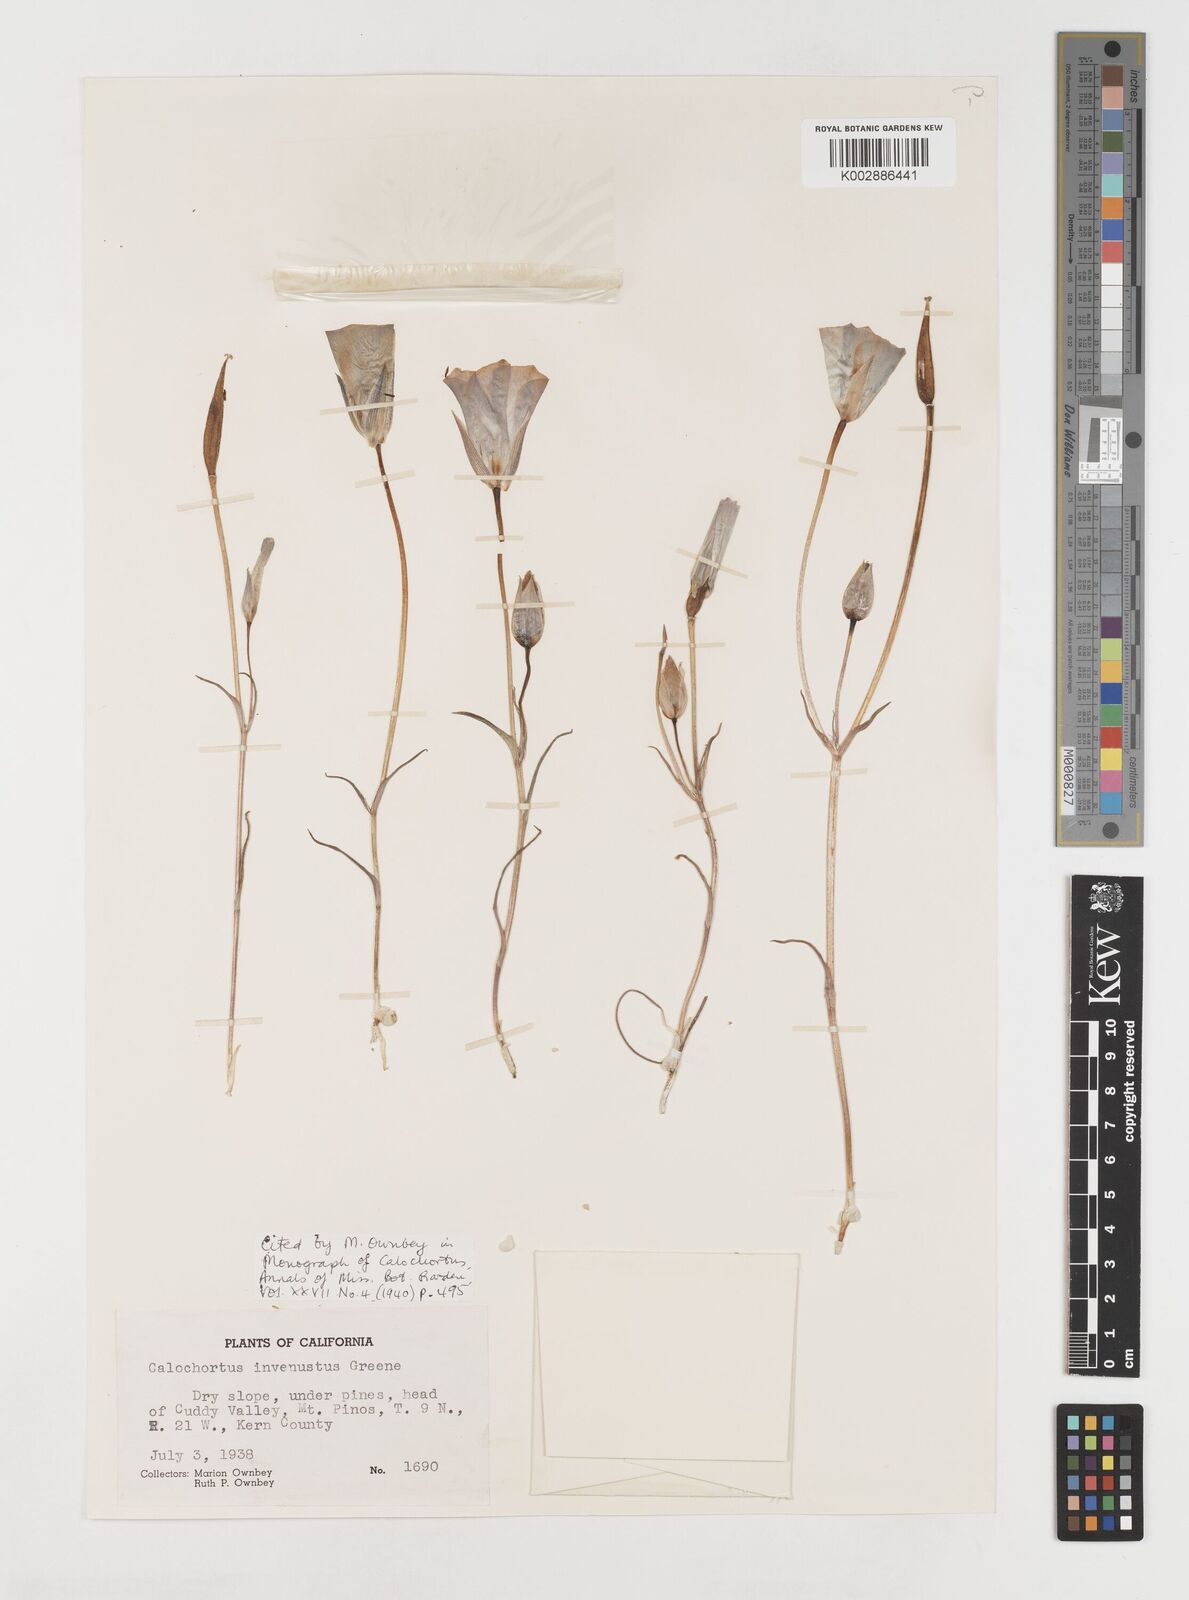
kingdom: Plantae
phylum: Tracheophyta
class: Liliopsida
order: Liliales
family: Liliaceae
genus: Calochortus
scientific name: Calochortus invenustus
